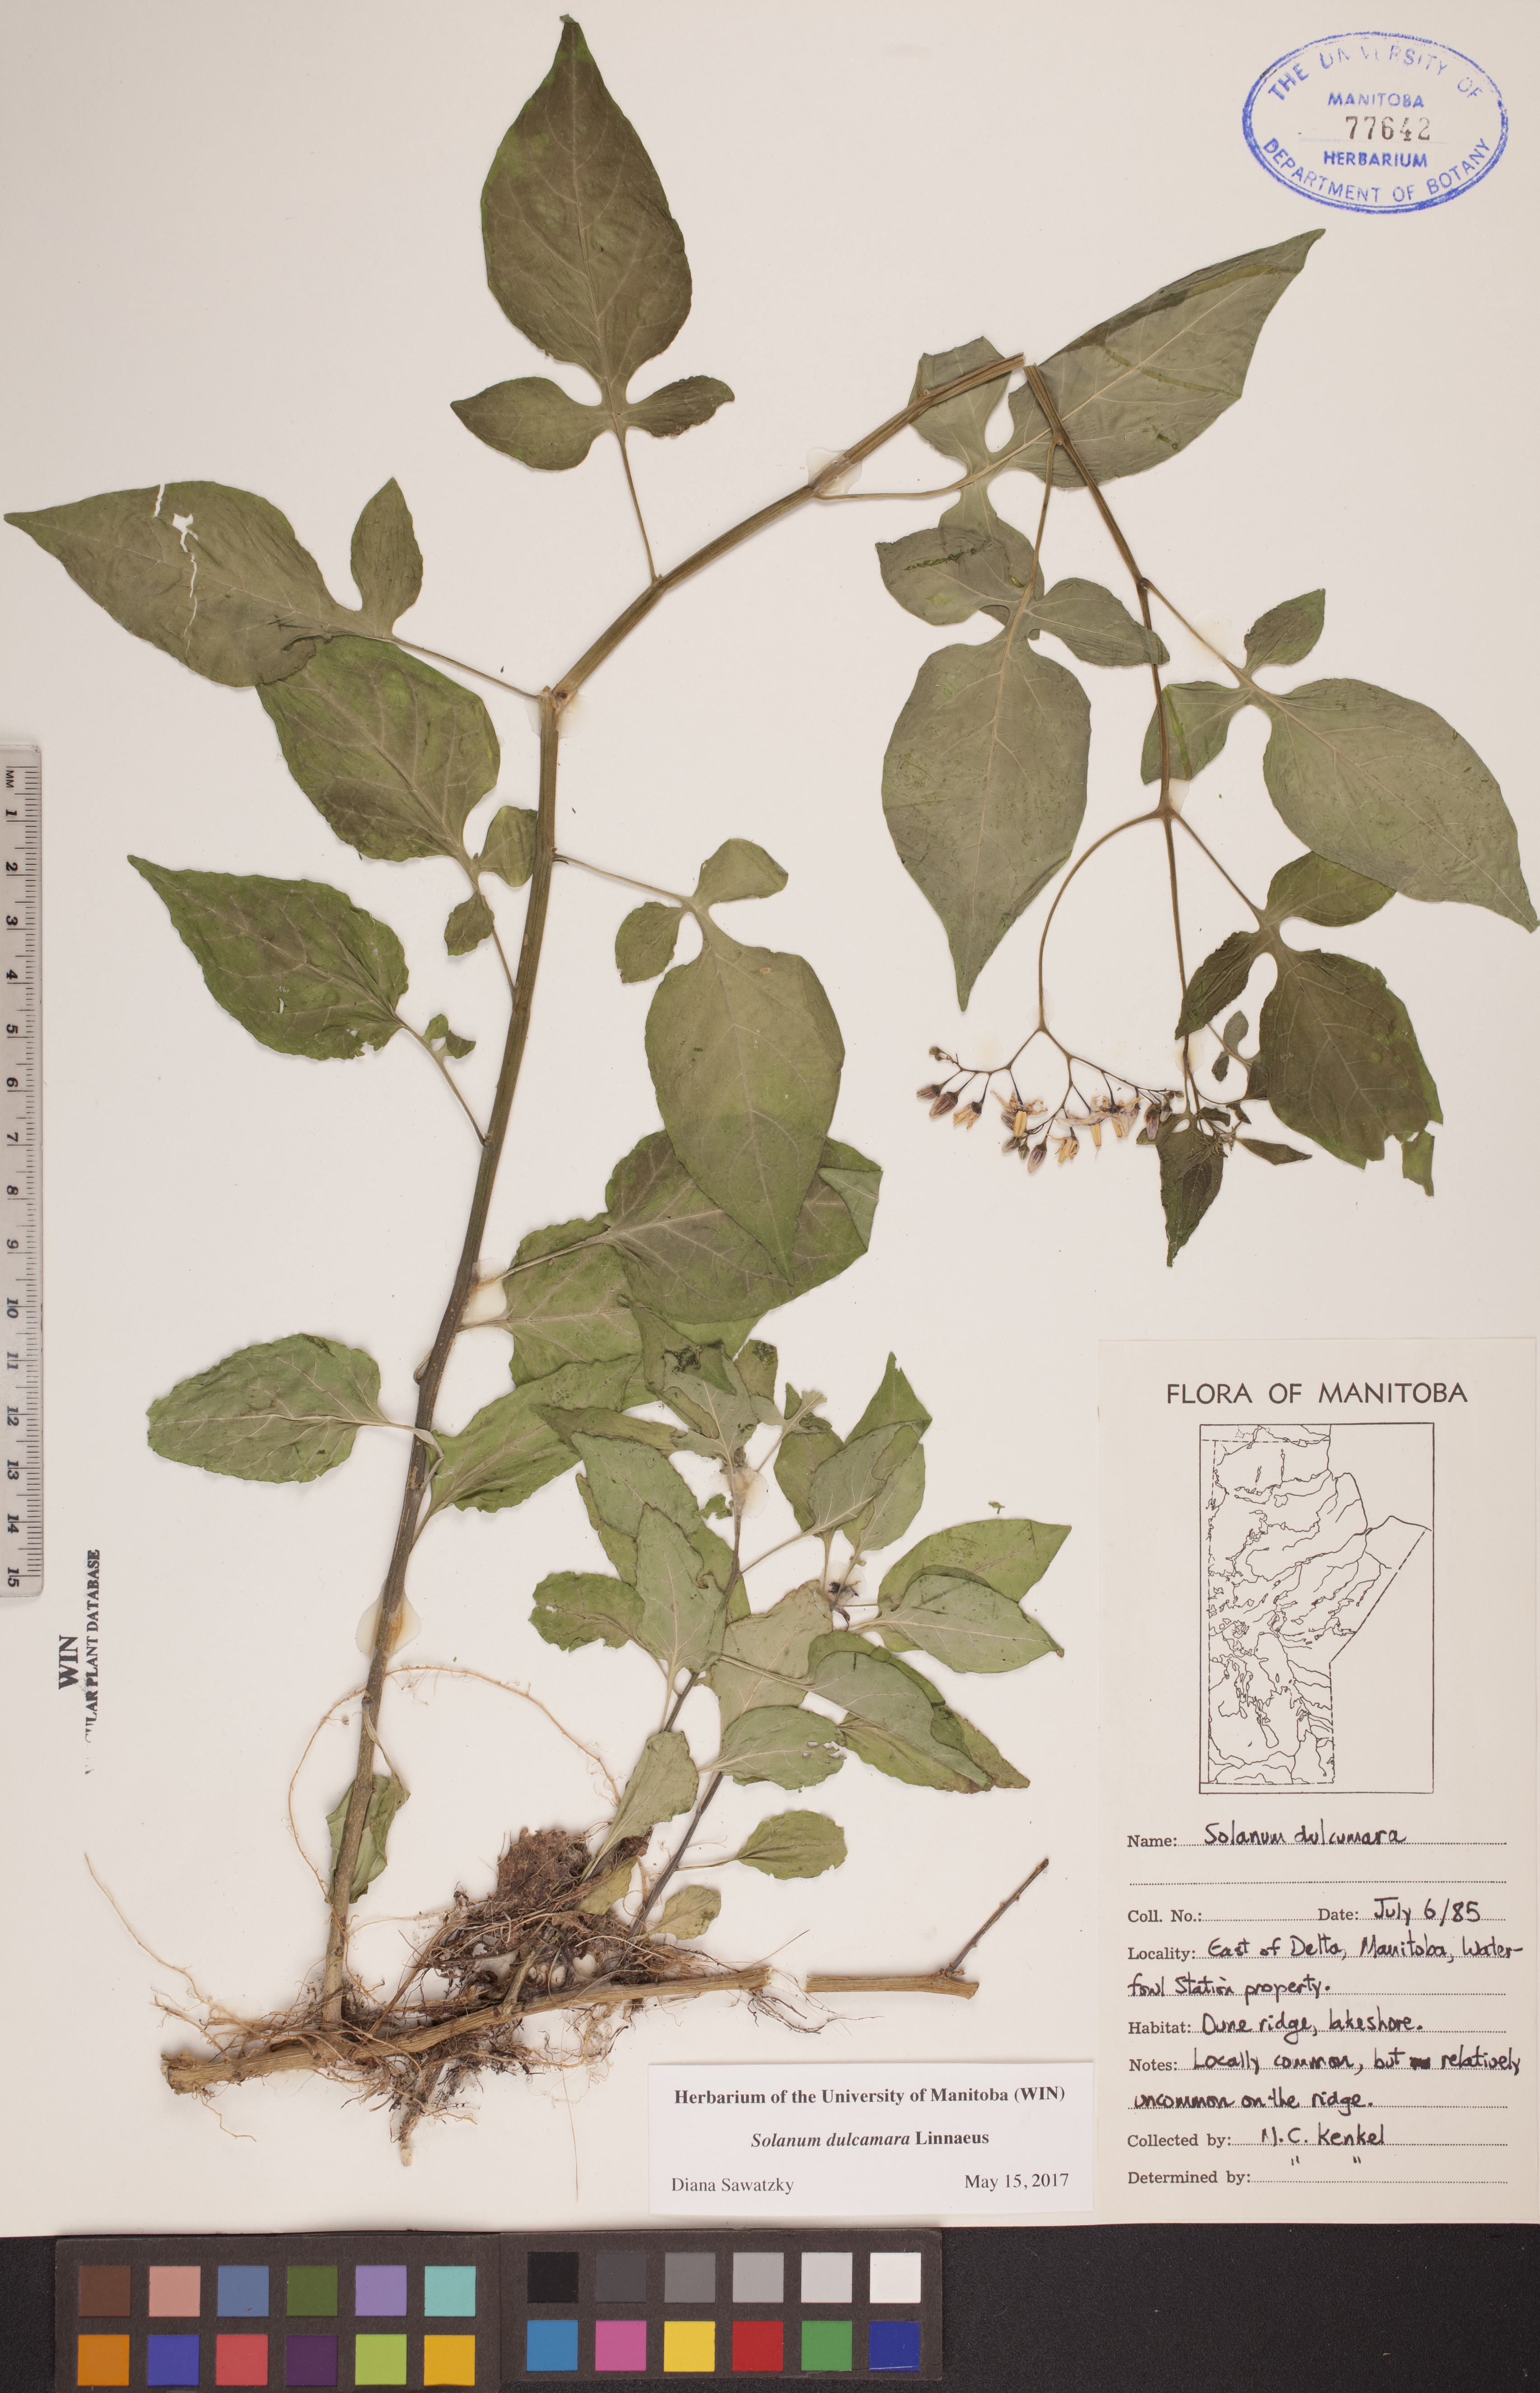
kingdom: Plantae
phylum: Tracheophyta
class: Magnoliopsida
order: Solanales
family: Solanaceae
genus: Solanum
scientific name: Solanum dulcamara
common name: Climbing nightshade
